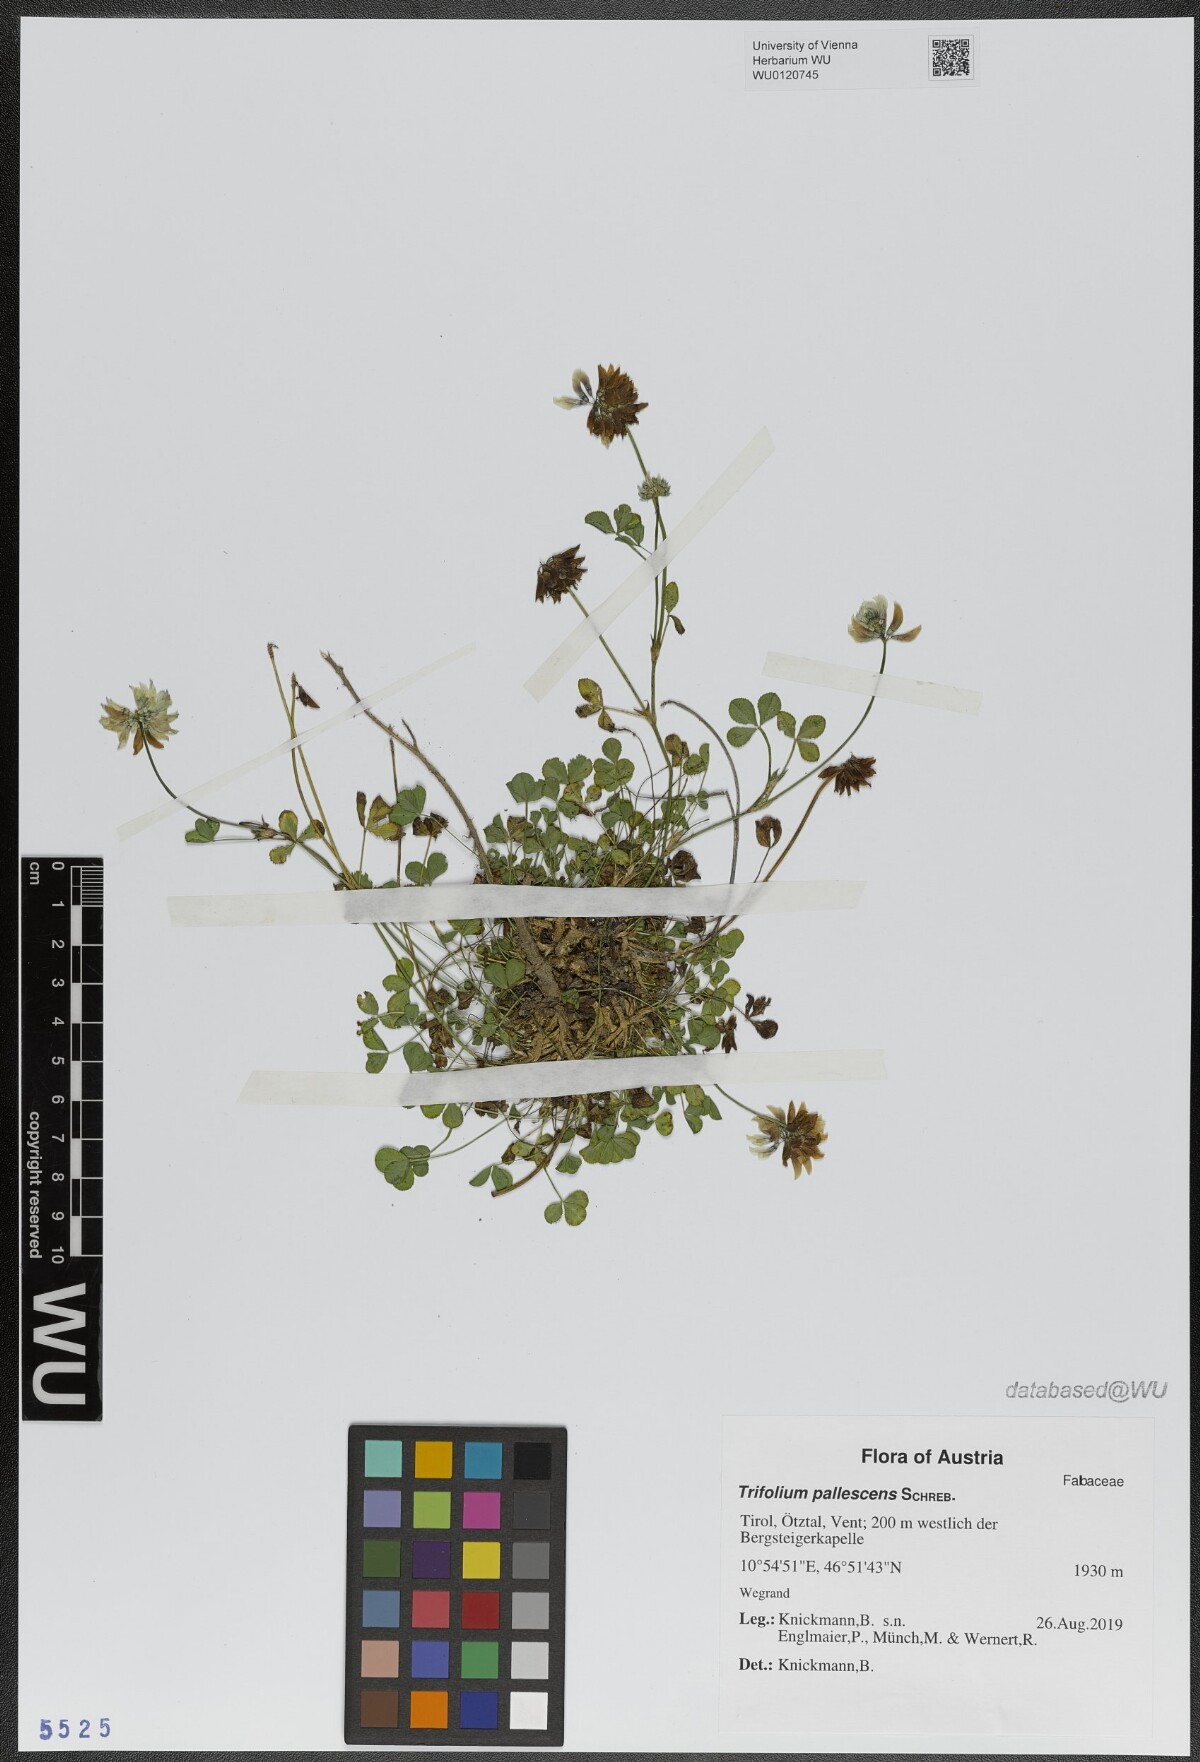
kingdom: Plantae
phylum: Tracheophyta
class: Magnoliopsida
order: Fabales
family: Fabaceae
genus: Trifolium
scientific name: Trifolium pallescens
